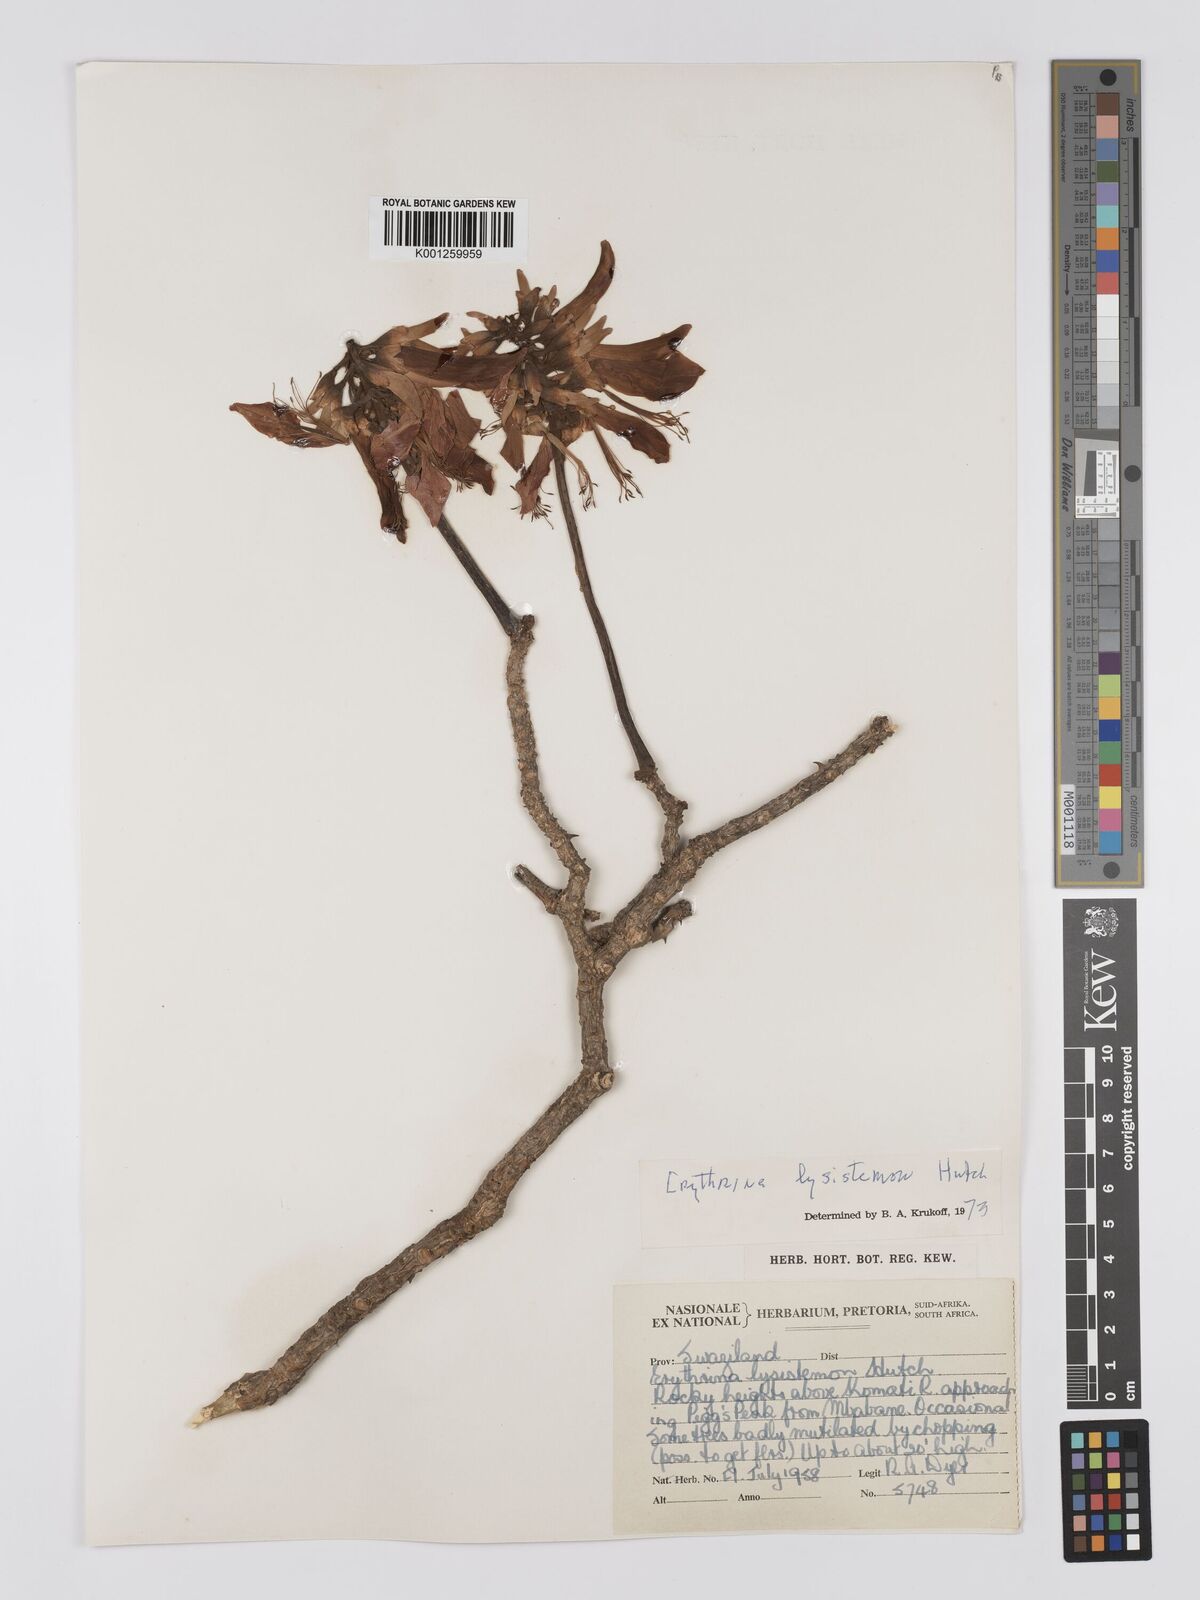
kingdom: Plantae
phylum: Tracheophyta
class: Magnoliopsida
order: Fabales
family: Fabaceae
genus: Erythrina
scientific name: Erythrina lysistemon
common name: Common coral tree
